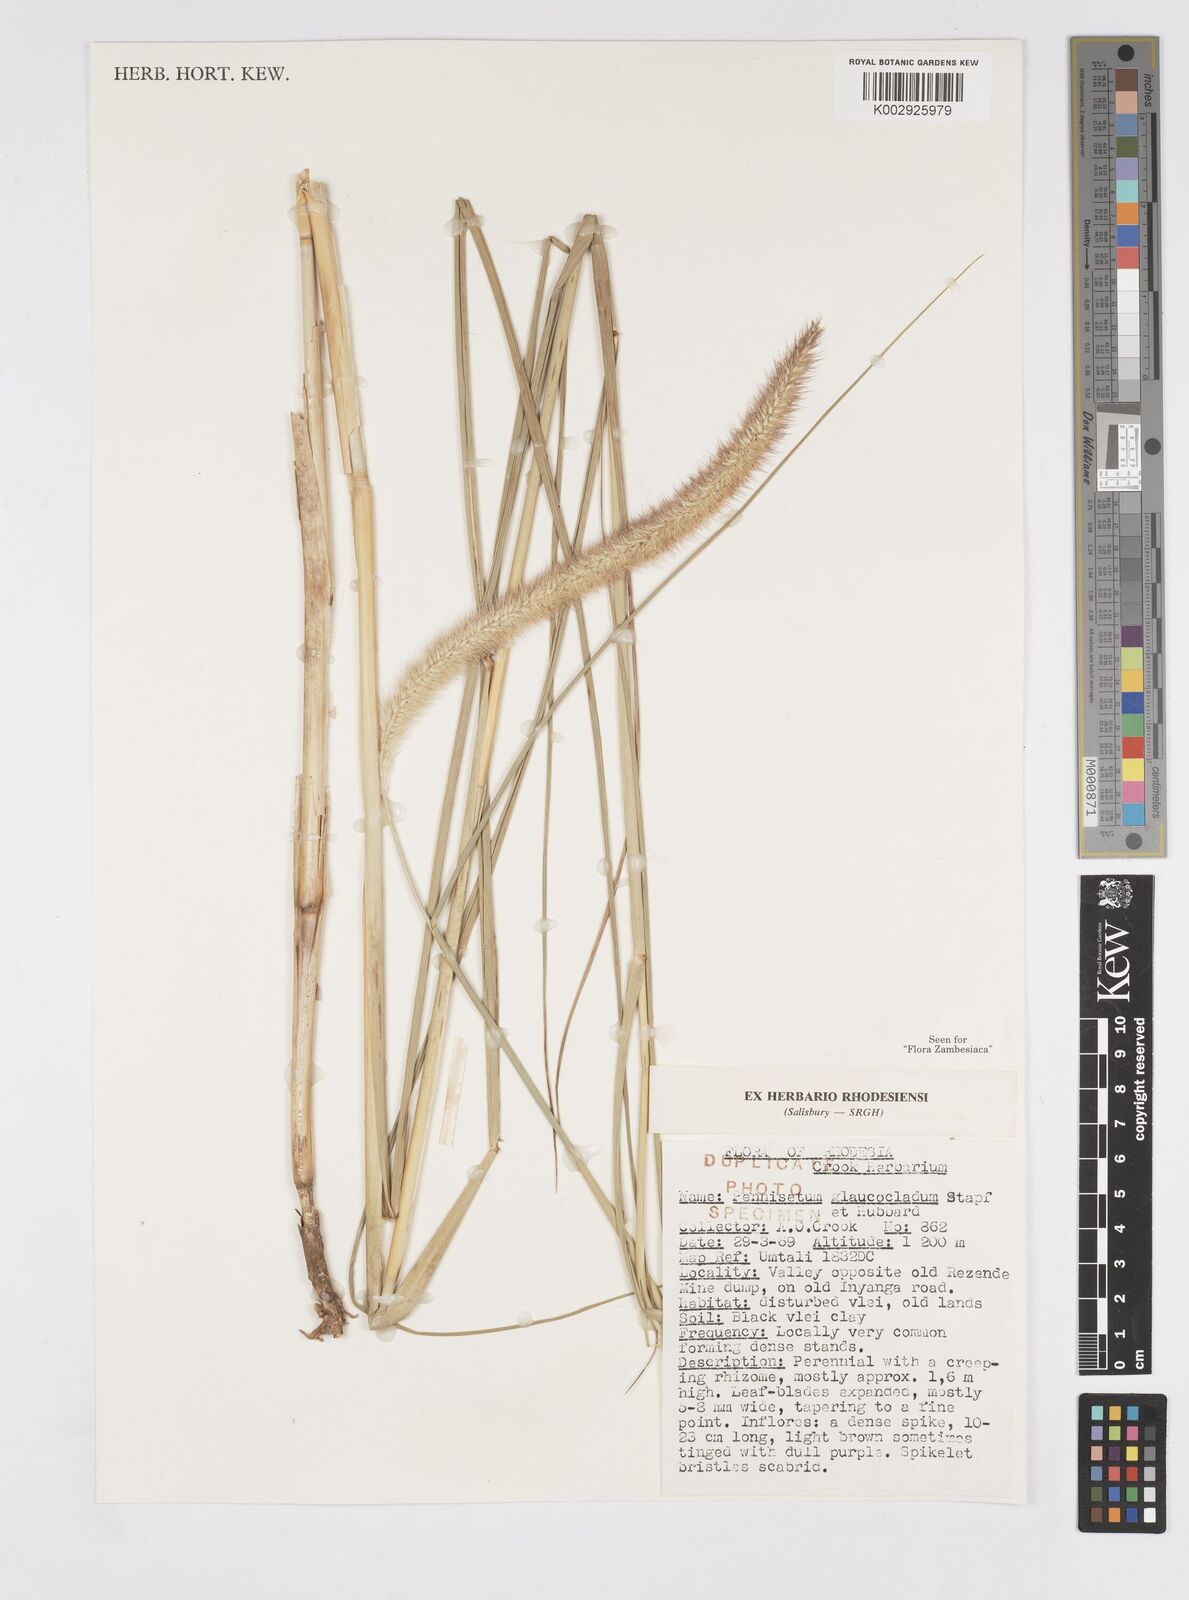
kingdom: Plantae
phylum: Tracheophyta
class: Liliopsida
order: Poales
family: Poaceae
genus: Cenchrus
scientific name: Cenchrus caudatus
